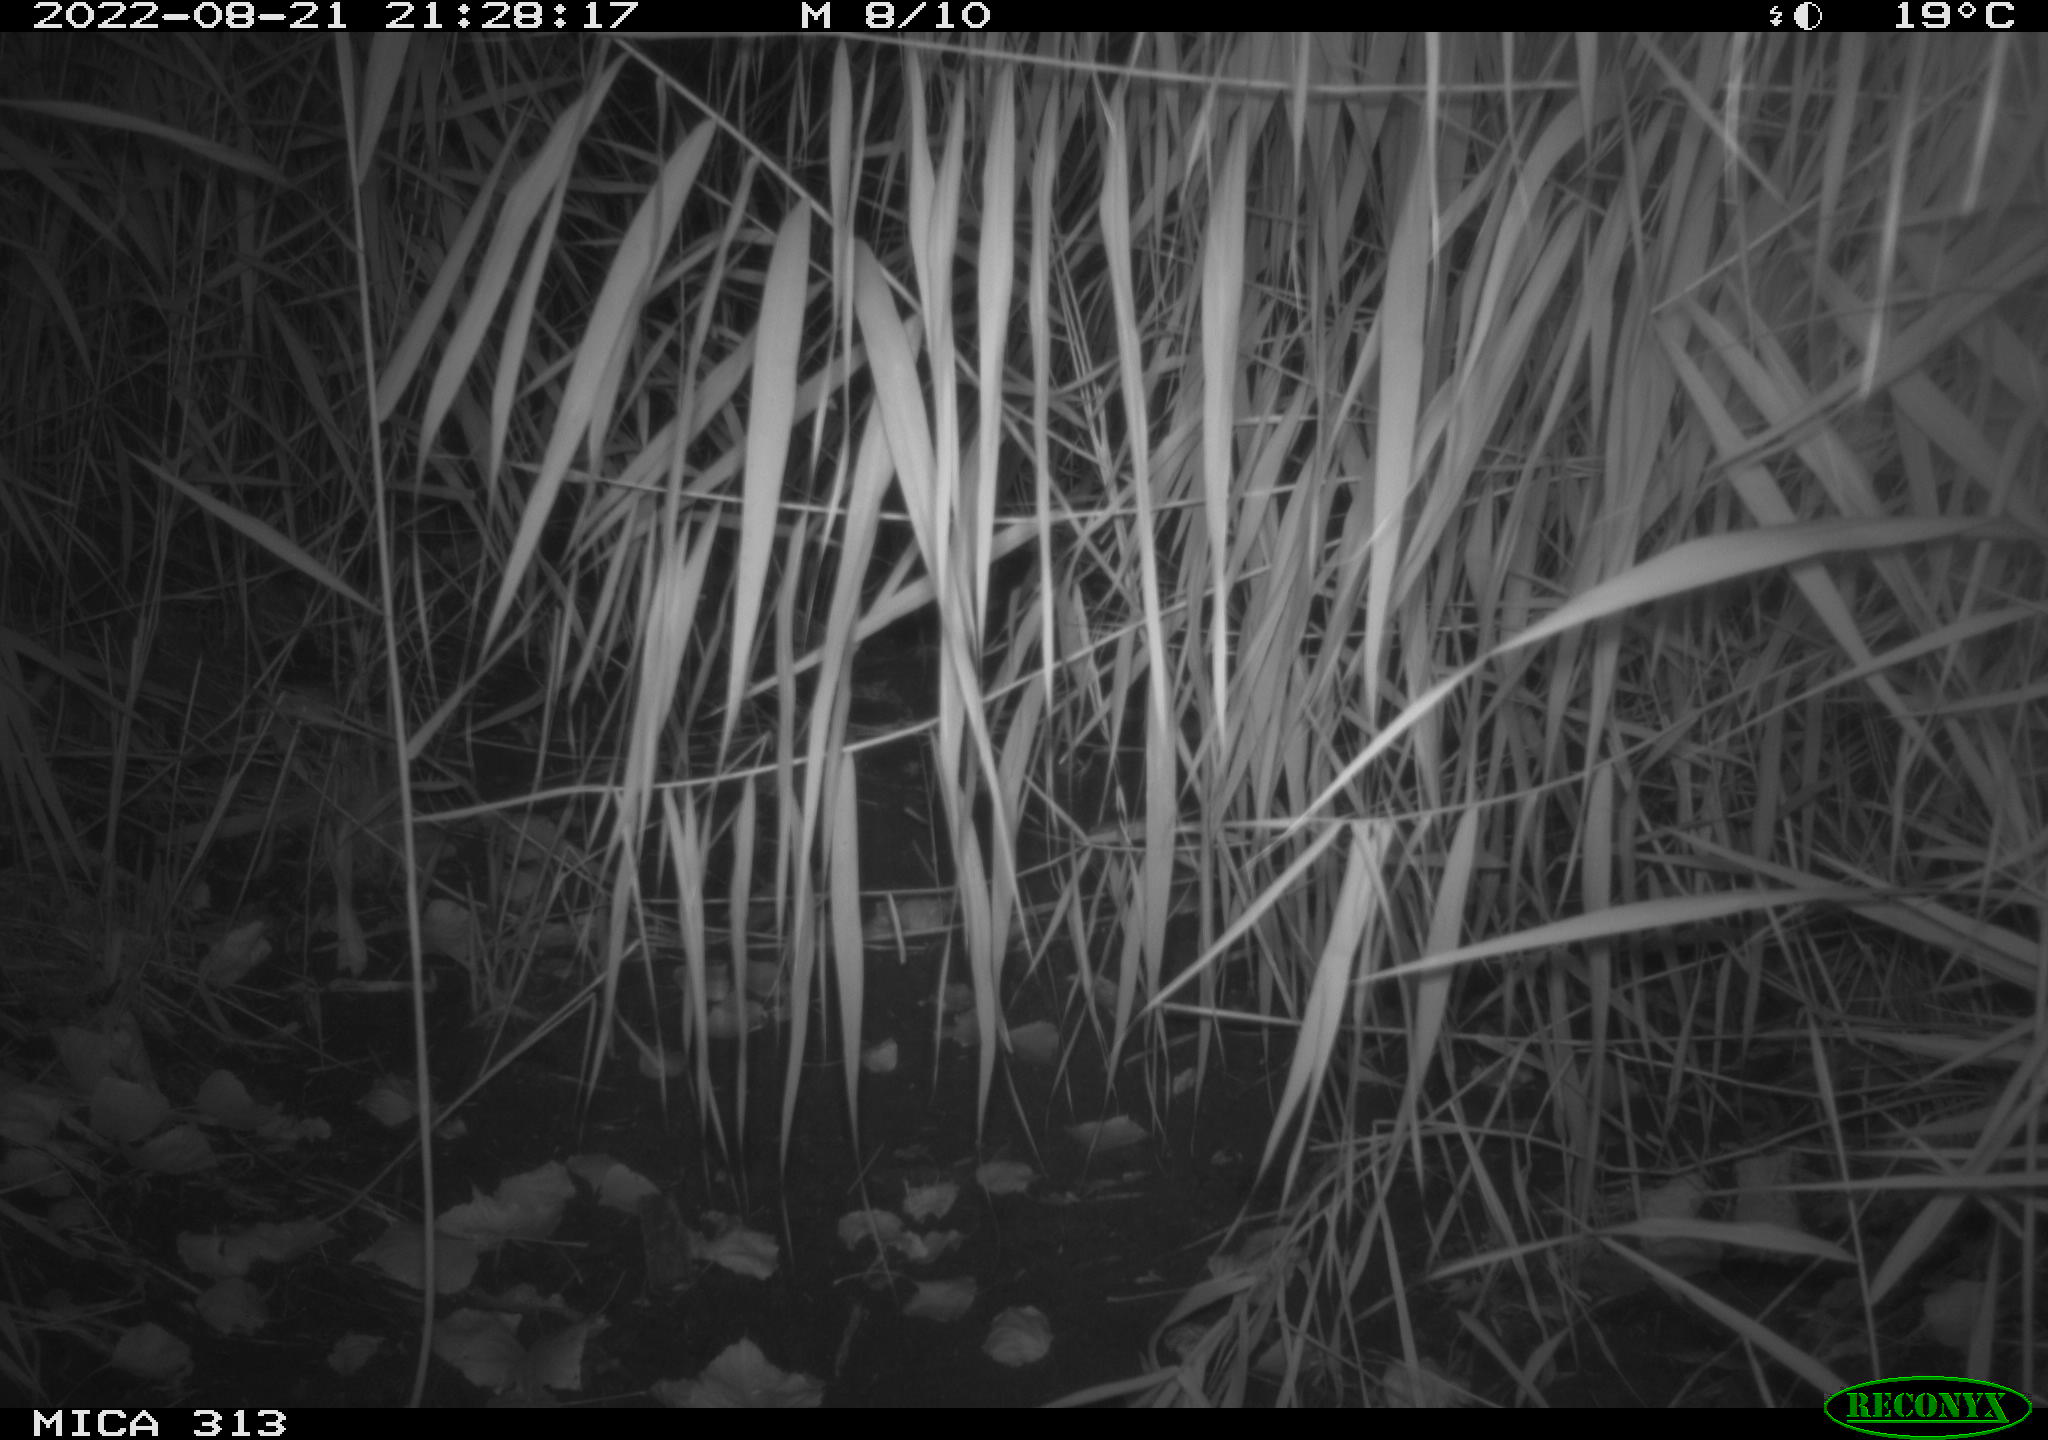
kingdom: Animalia
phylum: Chordata
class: Mammalia
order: Rodentia
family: Muridae
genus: Rattus
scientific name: Rattus norvegicus
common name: Brown rat
